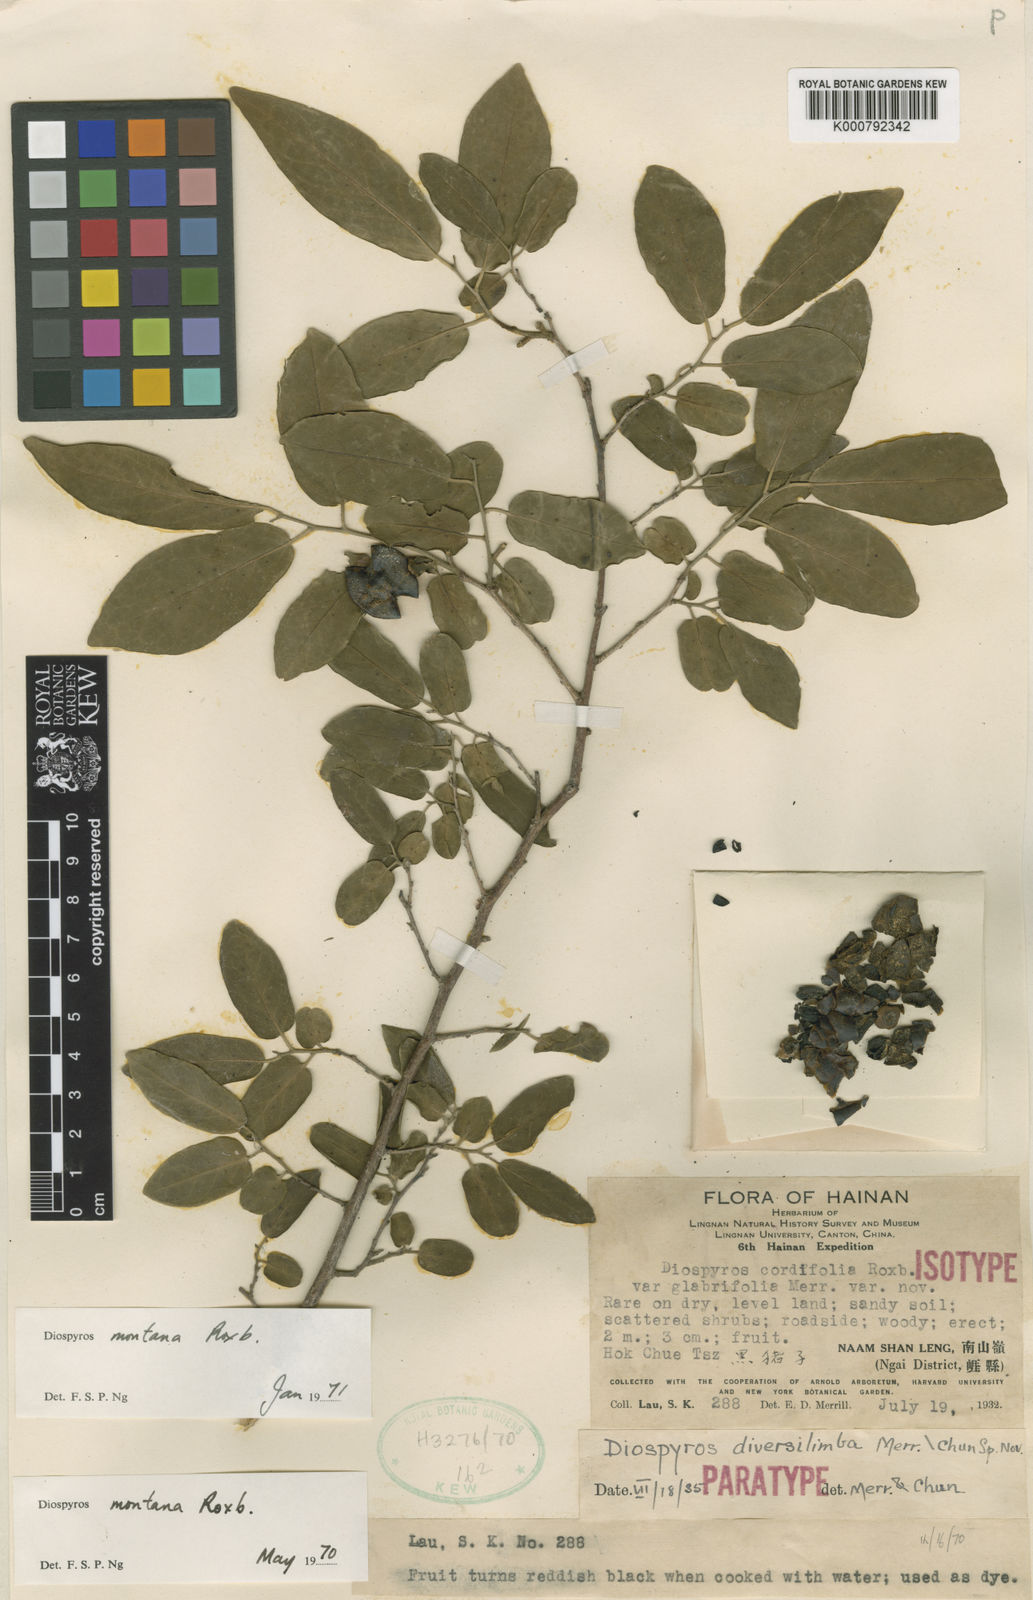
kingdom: Plantae
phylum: Tracheophyta
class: Magnoliopsida
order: Ericales
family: Ebenaceae
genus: Diospyros
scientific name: Diospyros diversilimba
